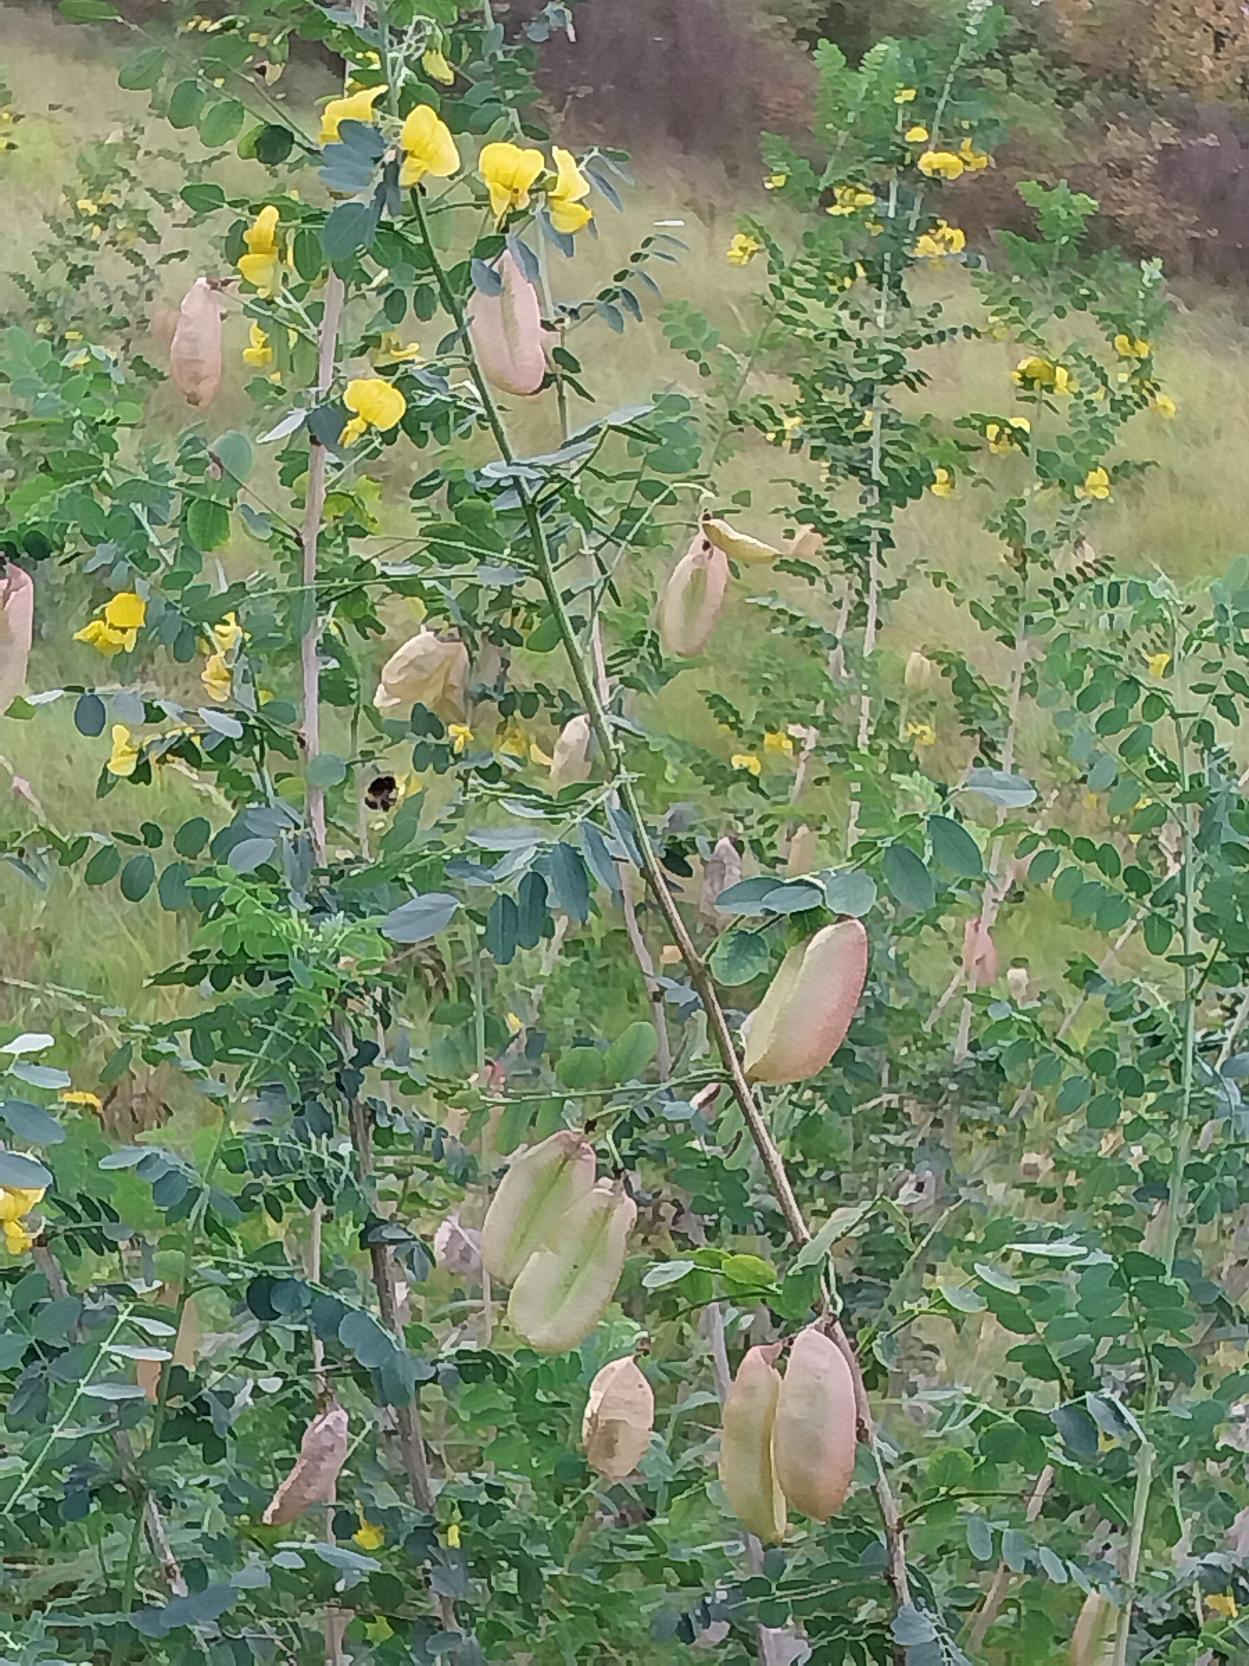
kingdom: Plantae
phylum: Tracheophyta
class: Magnoliopsida
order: Fabales
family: Fabaceae
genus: Colutea
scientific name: Colutea arborescens
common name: Almindelig blærebælg
